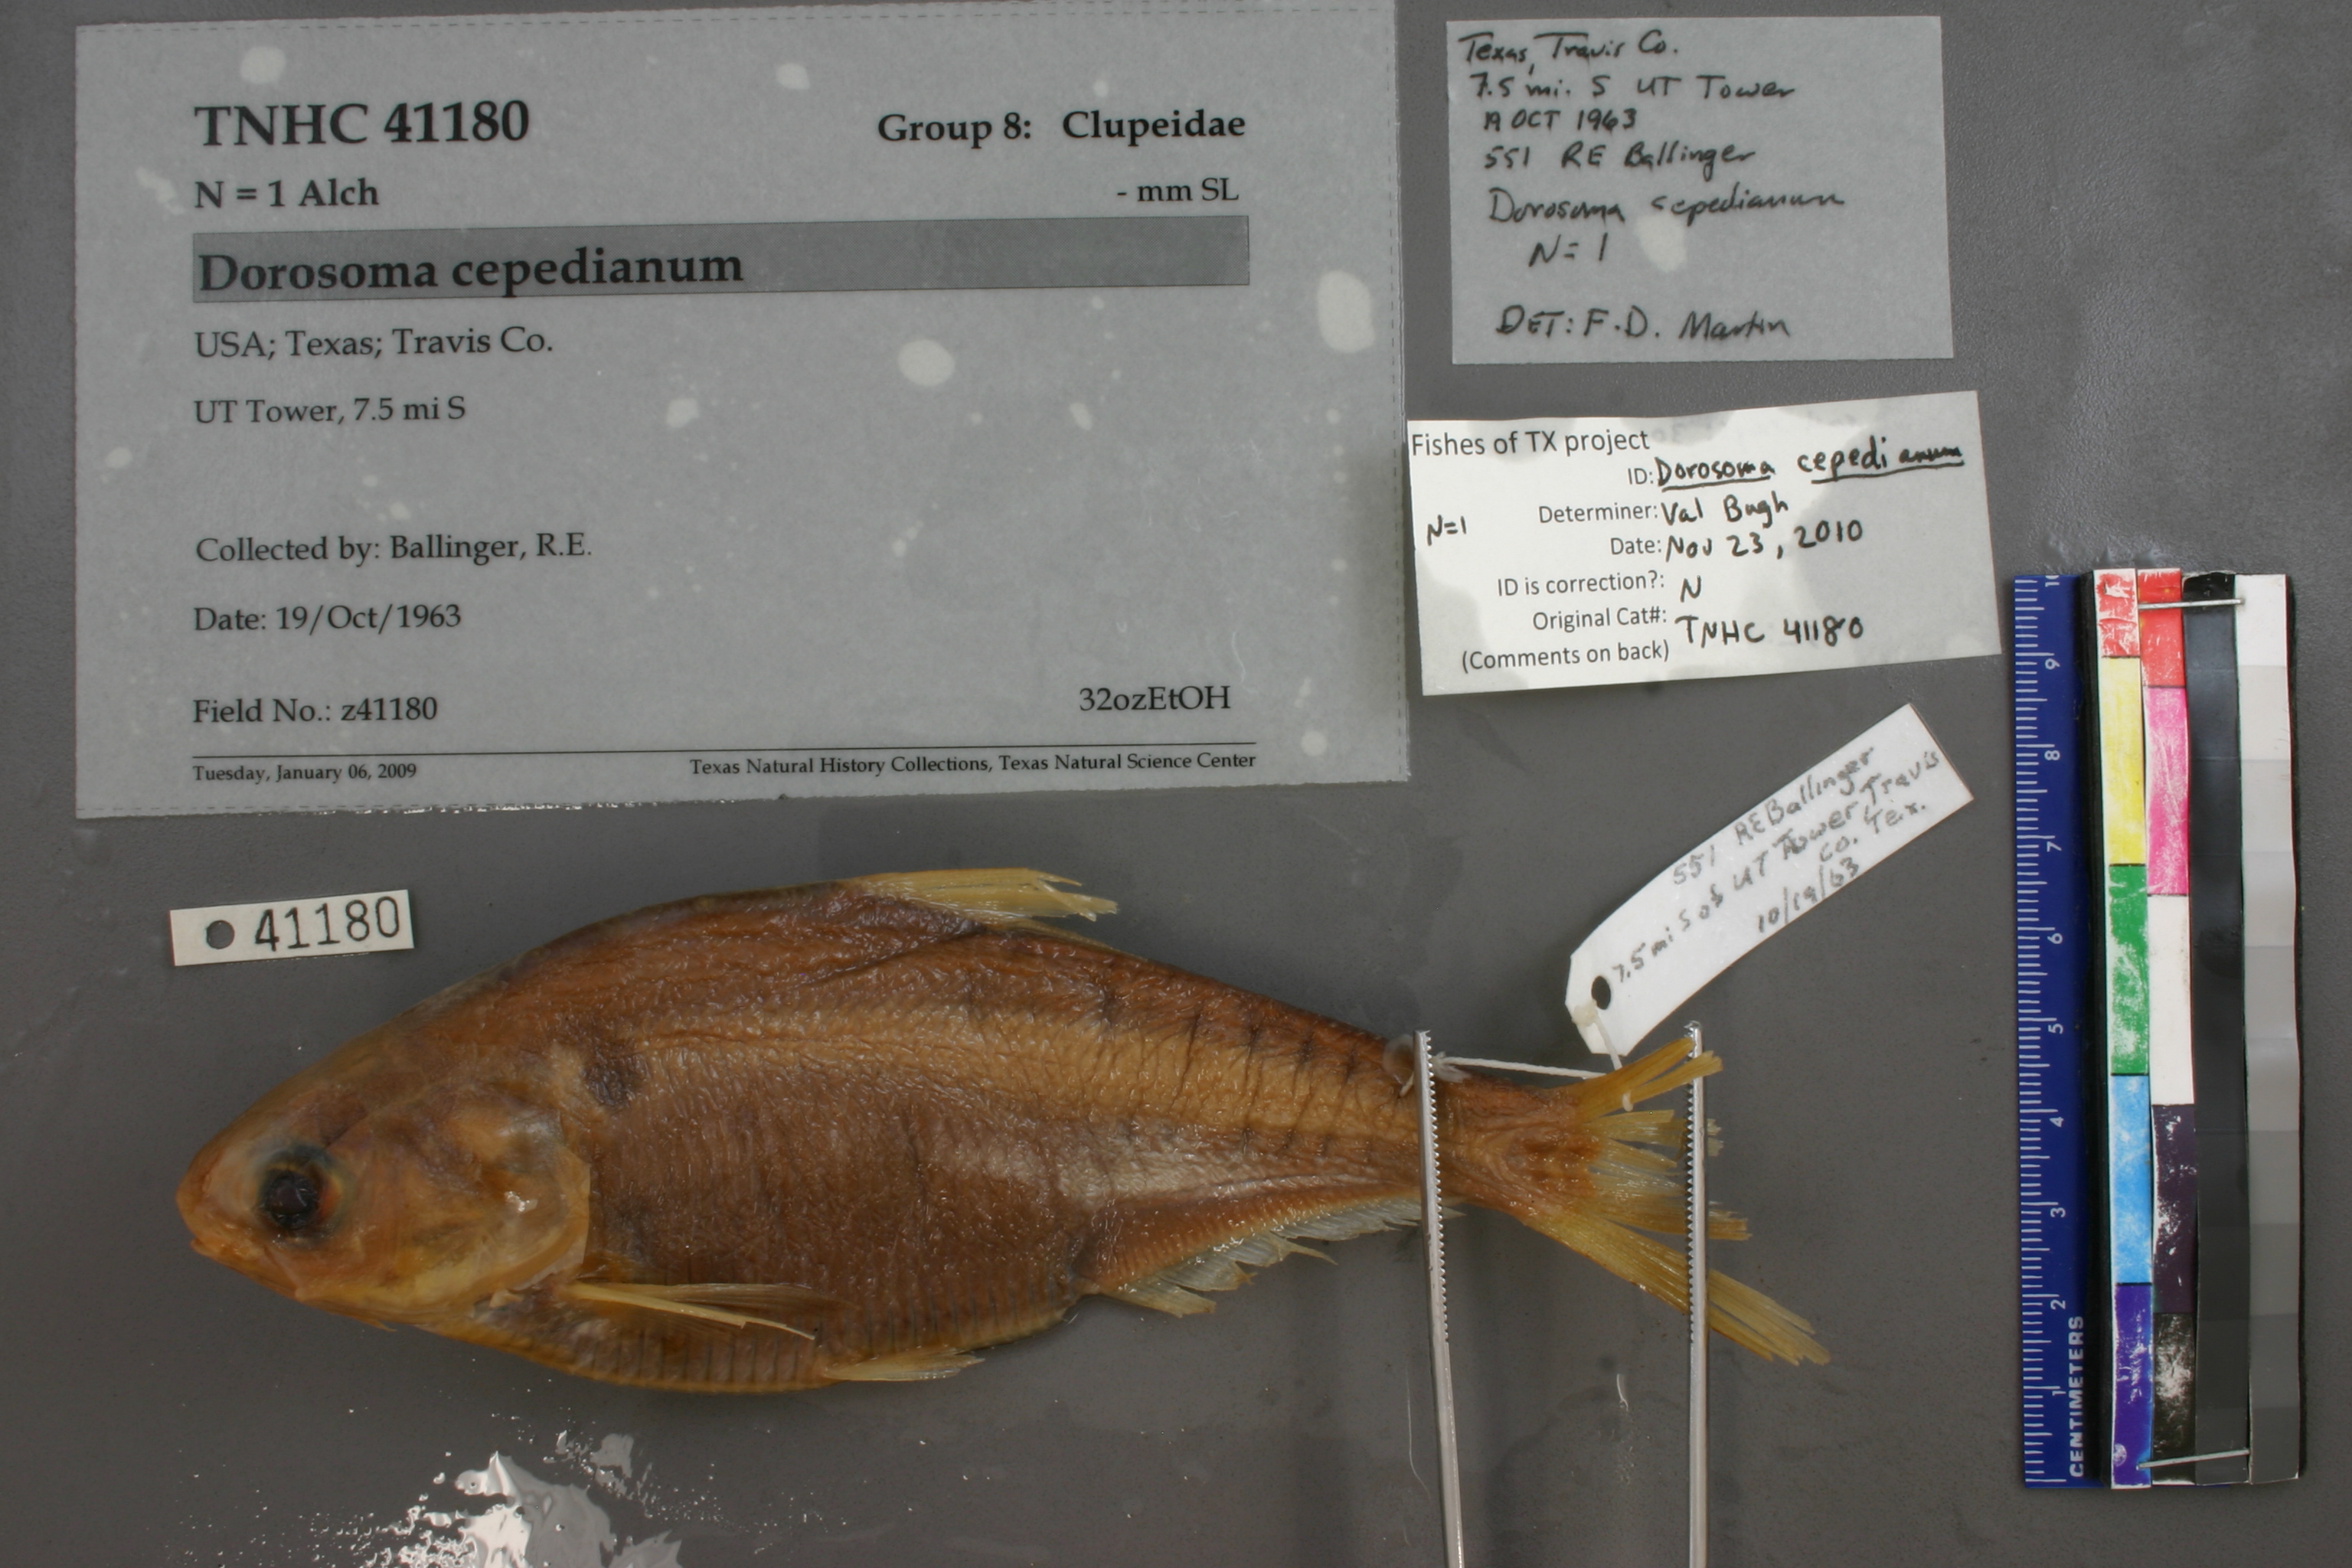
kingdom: Animalia
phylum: Chordata
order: Clupeiformes
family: Clupeidae
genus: Dorosoma
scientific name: Dorosoma cepedianum
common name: Gizzard shad
